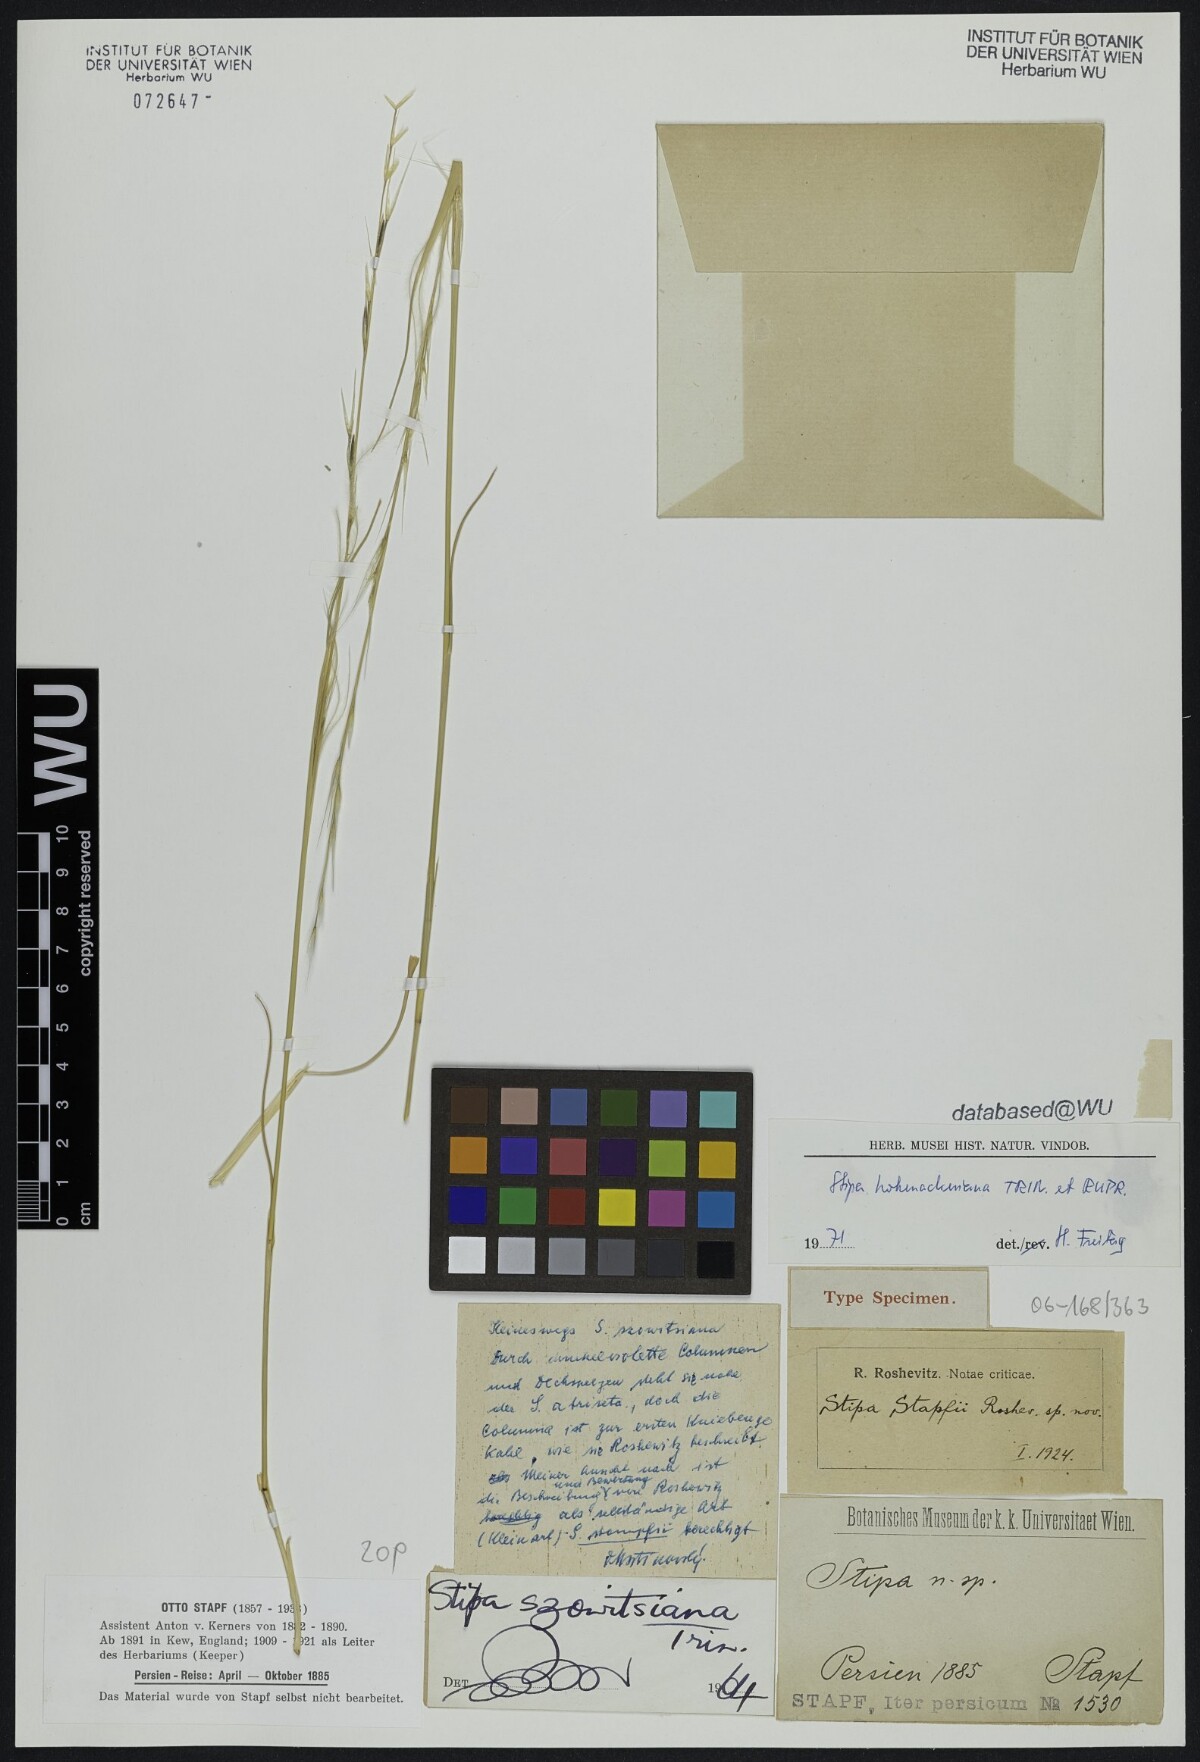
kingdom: Plantae
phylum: Tracheophyta
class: Liliopsida
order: Poales
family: Poaceae
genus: Stipa
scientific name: Stipa assyriaca
